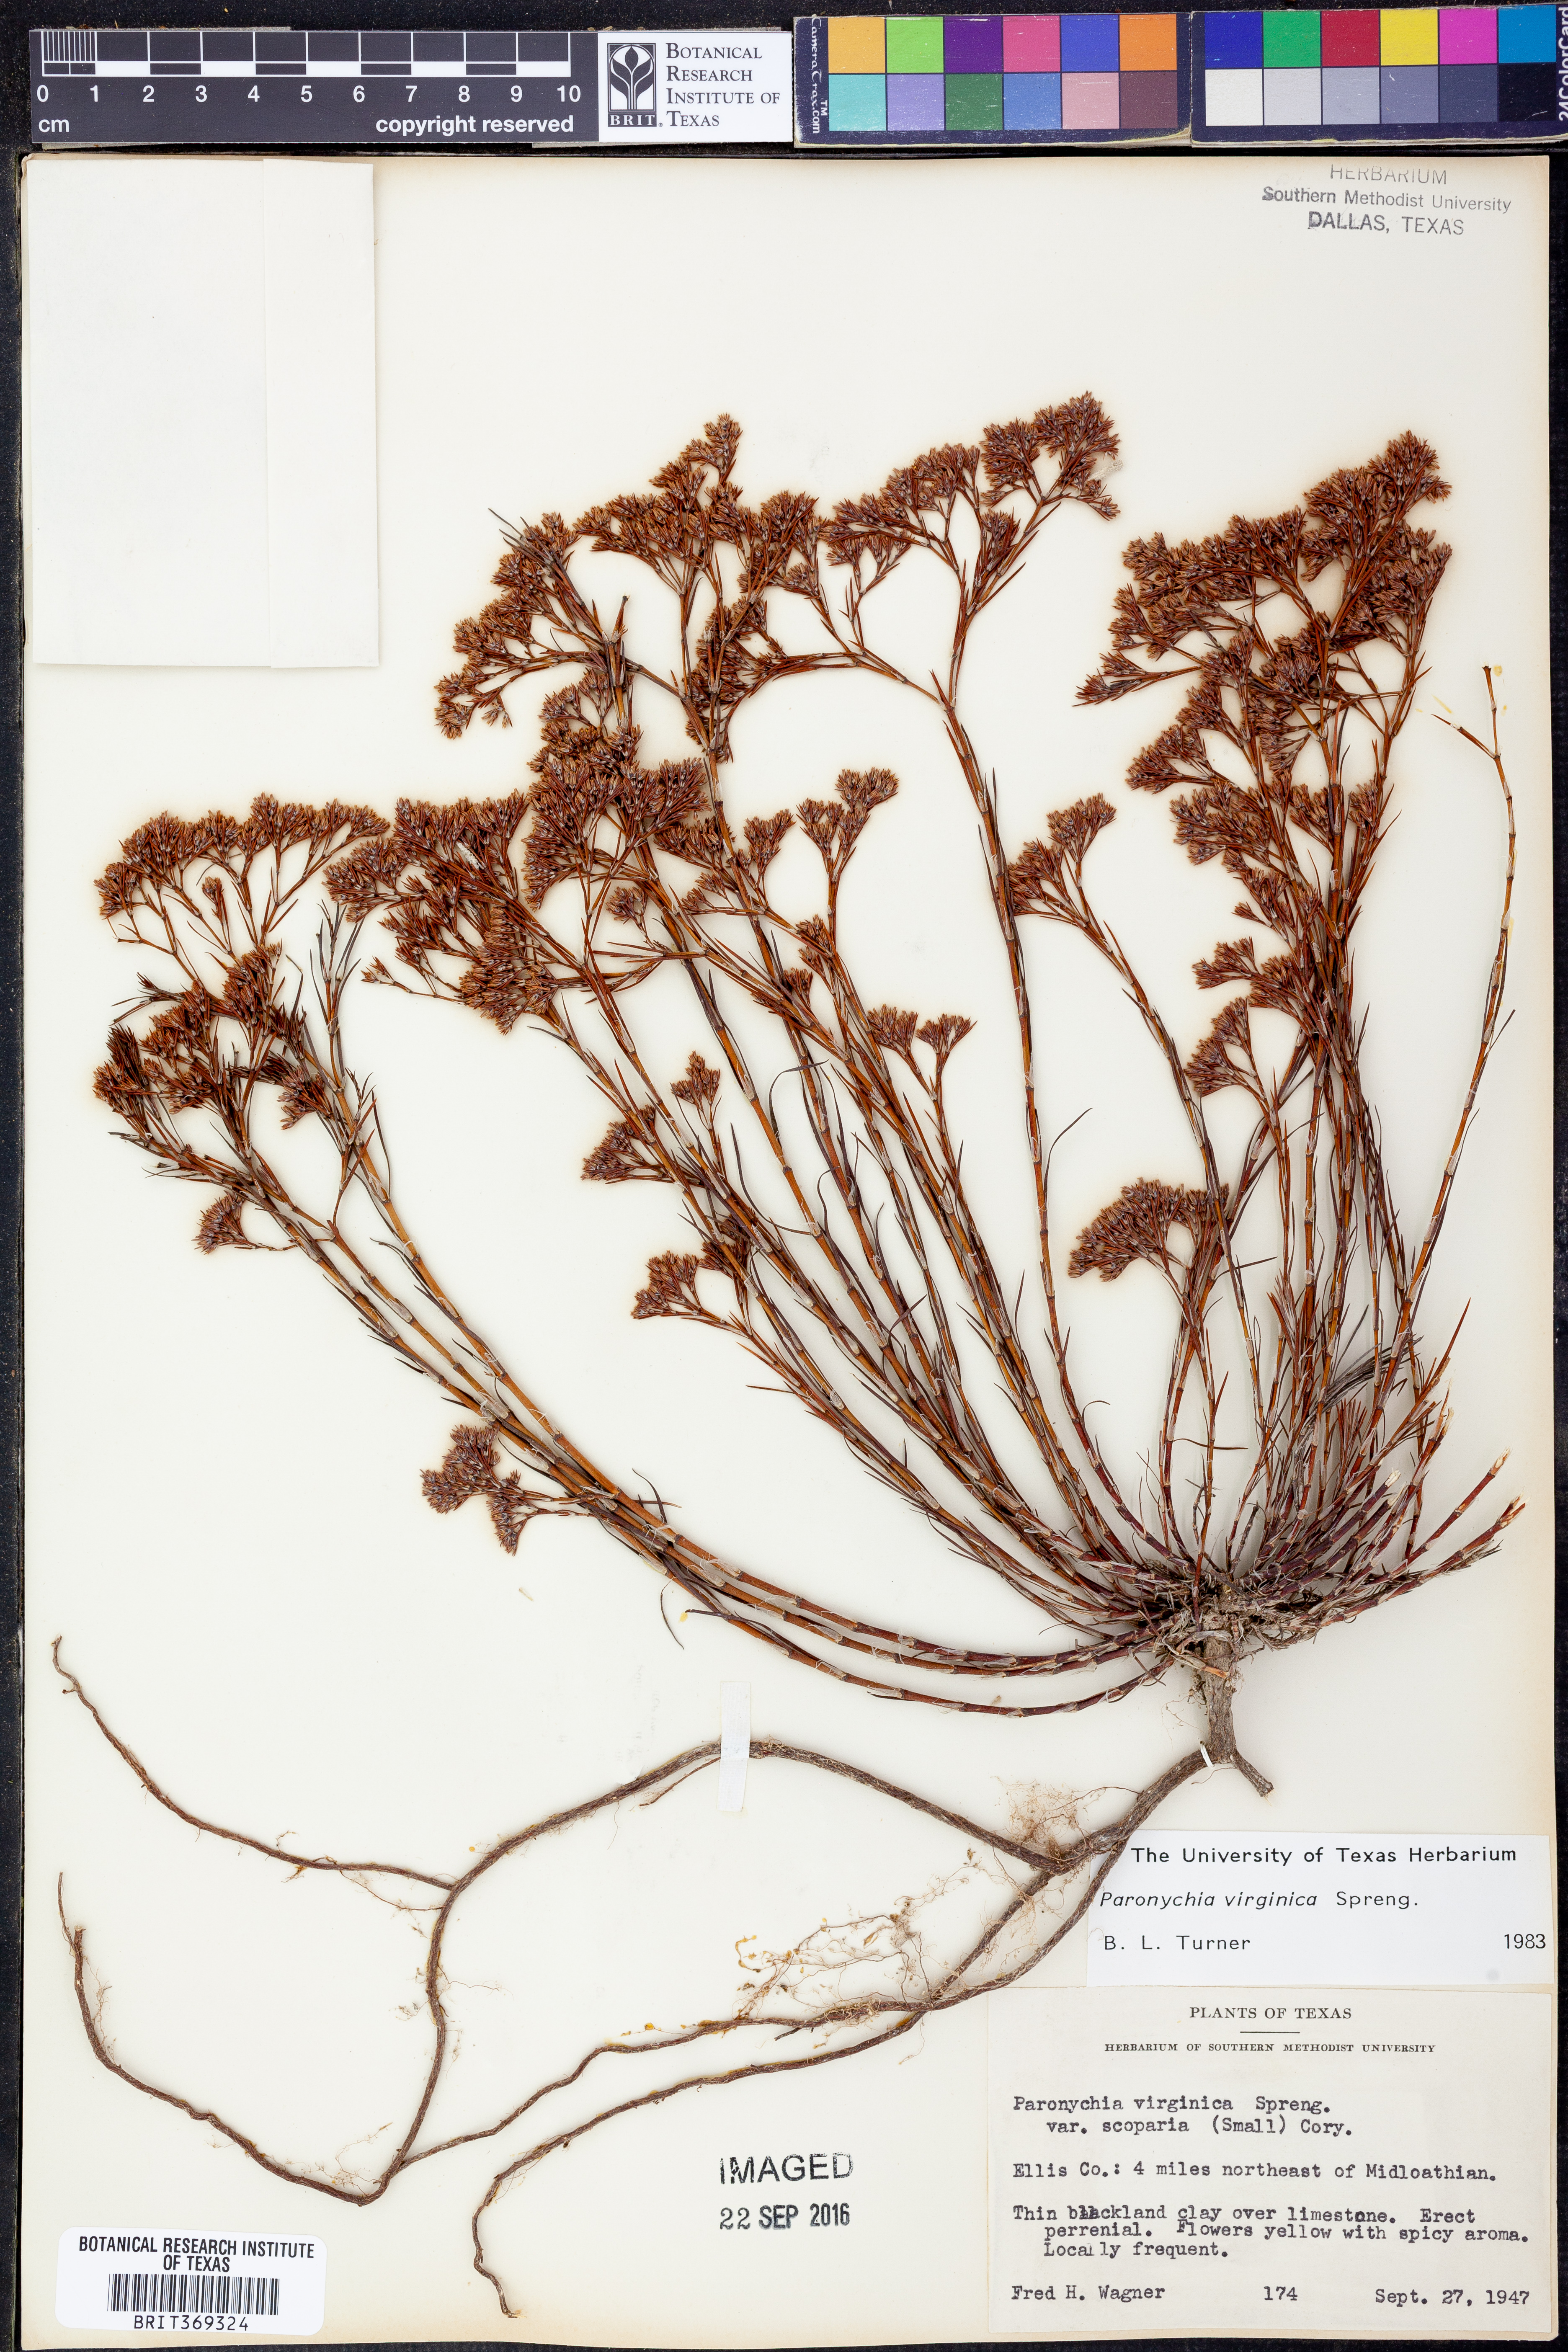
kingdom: Plantae
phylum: Tracheophyta
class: Magnoliopsida
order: Caryophyllales
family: Caryophyllaceae
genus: Paronychia
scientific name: Paronychia virginica
